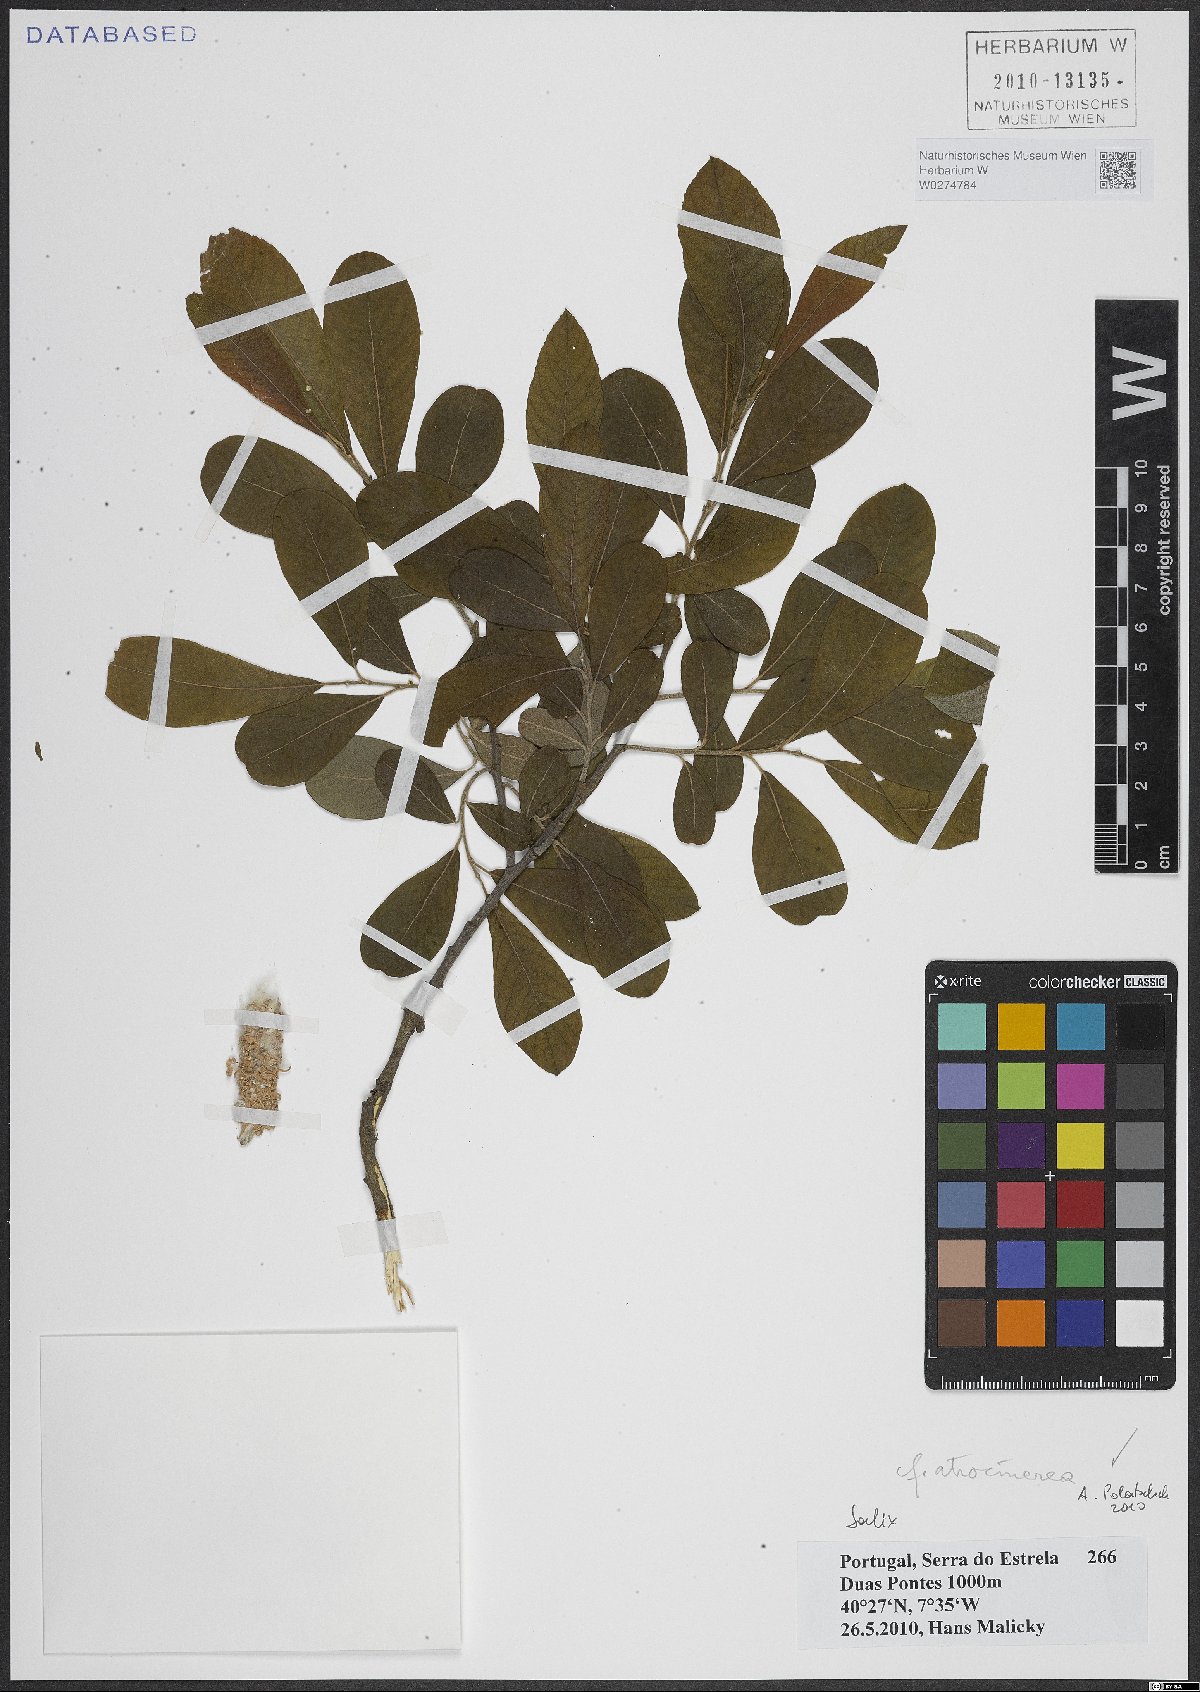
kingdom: Plantae
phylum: Tracheophyta
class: Magnoliopsida
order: Malpighiales
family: Salicaceae
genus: Salix
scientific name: Salix atrocinerea
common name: Rusty willow
